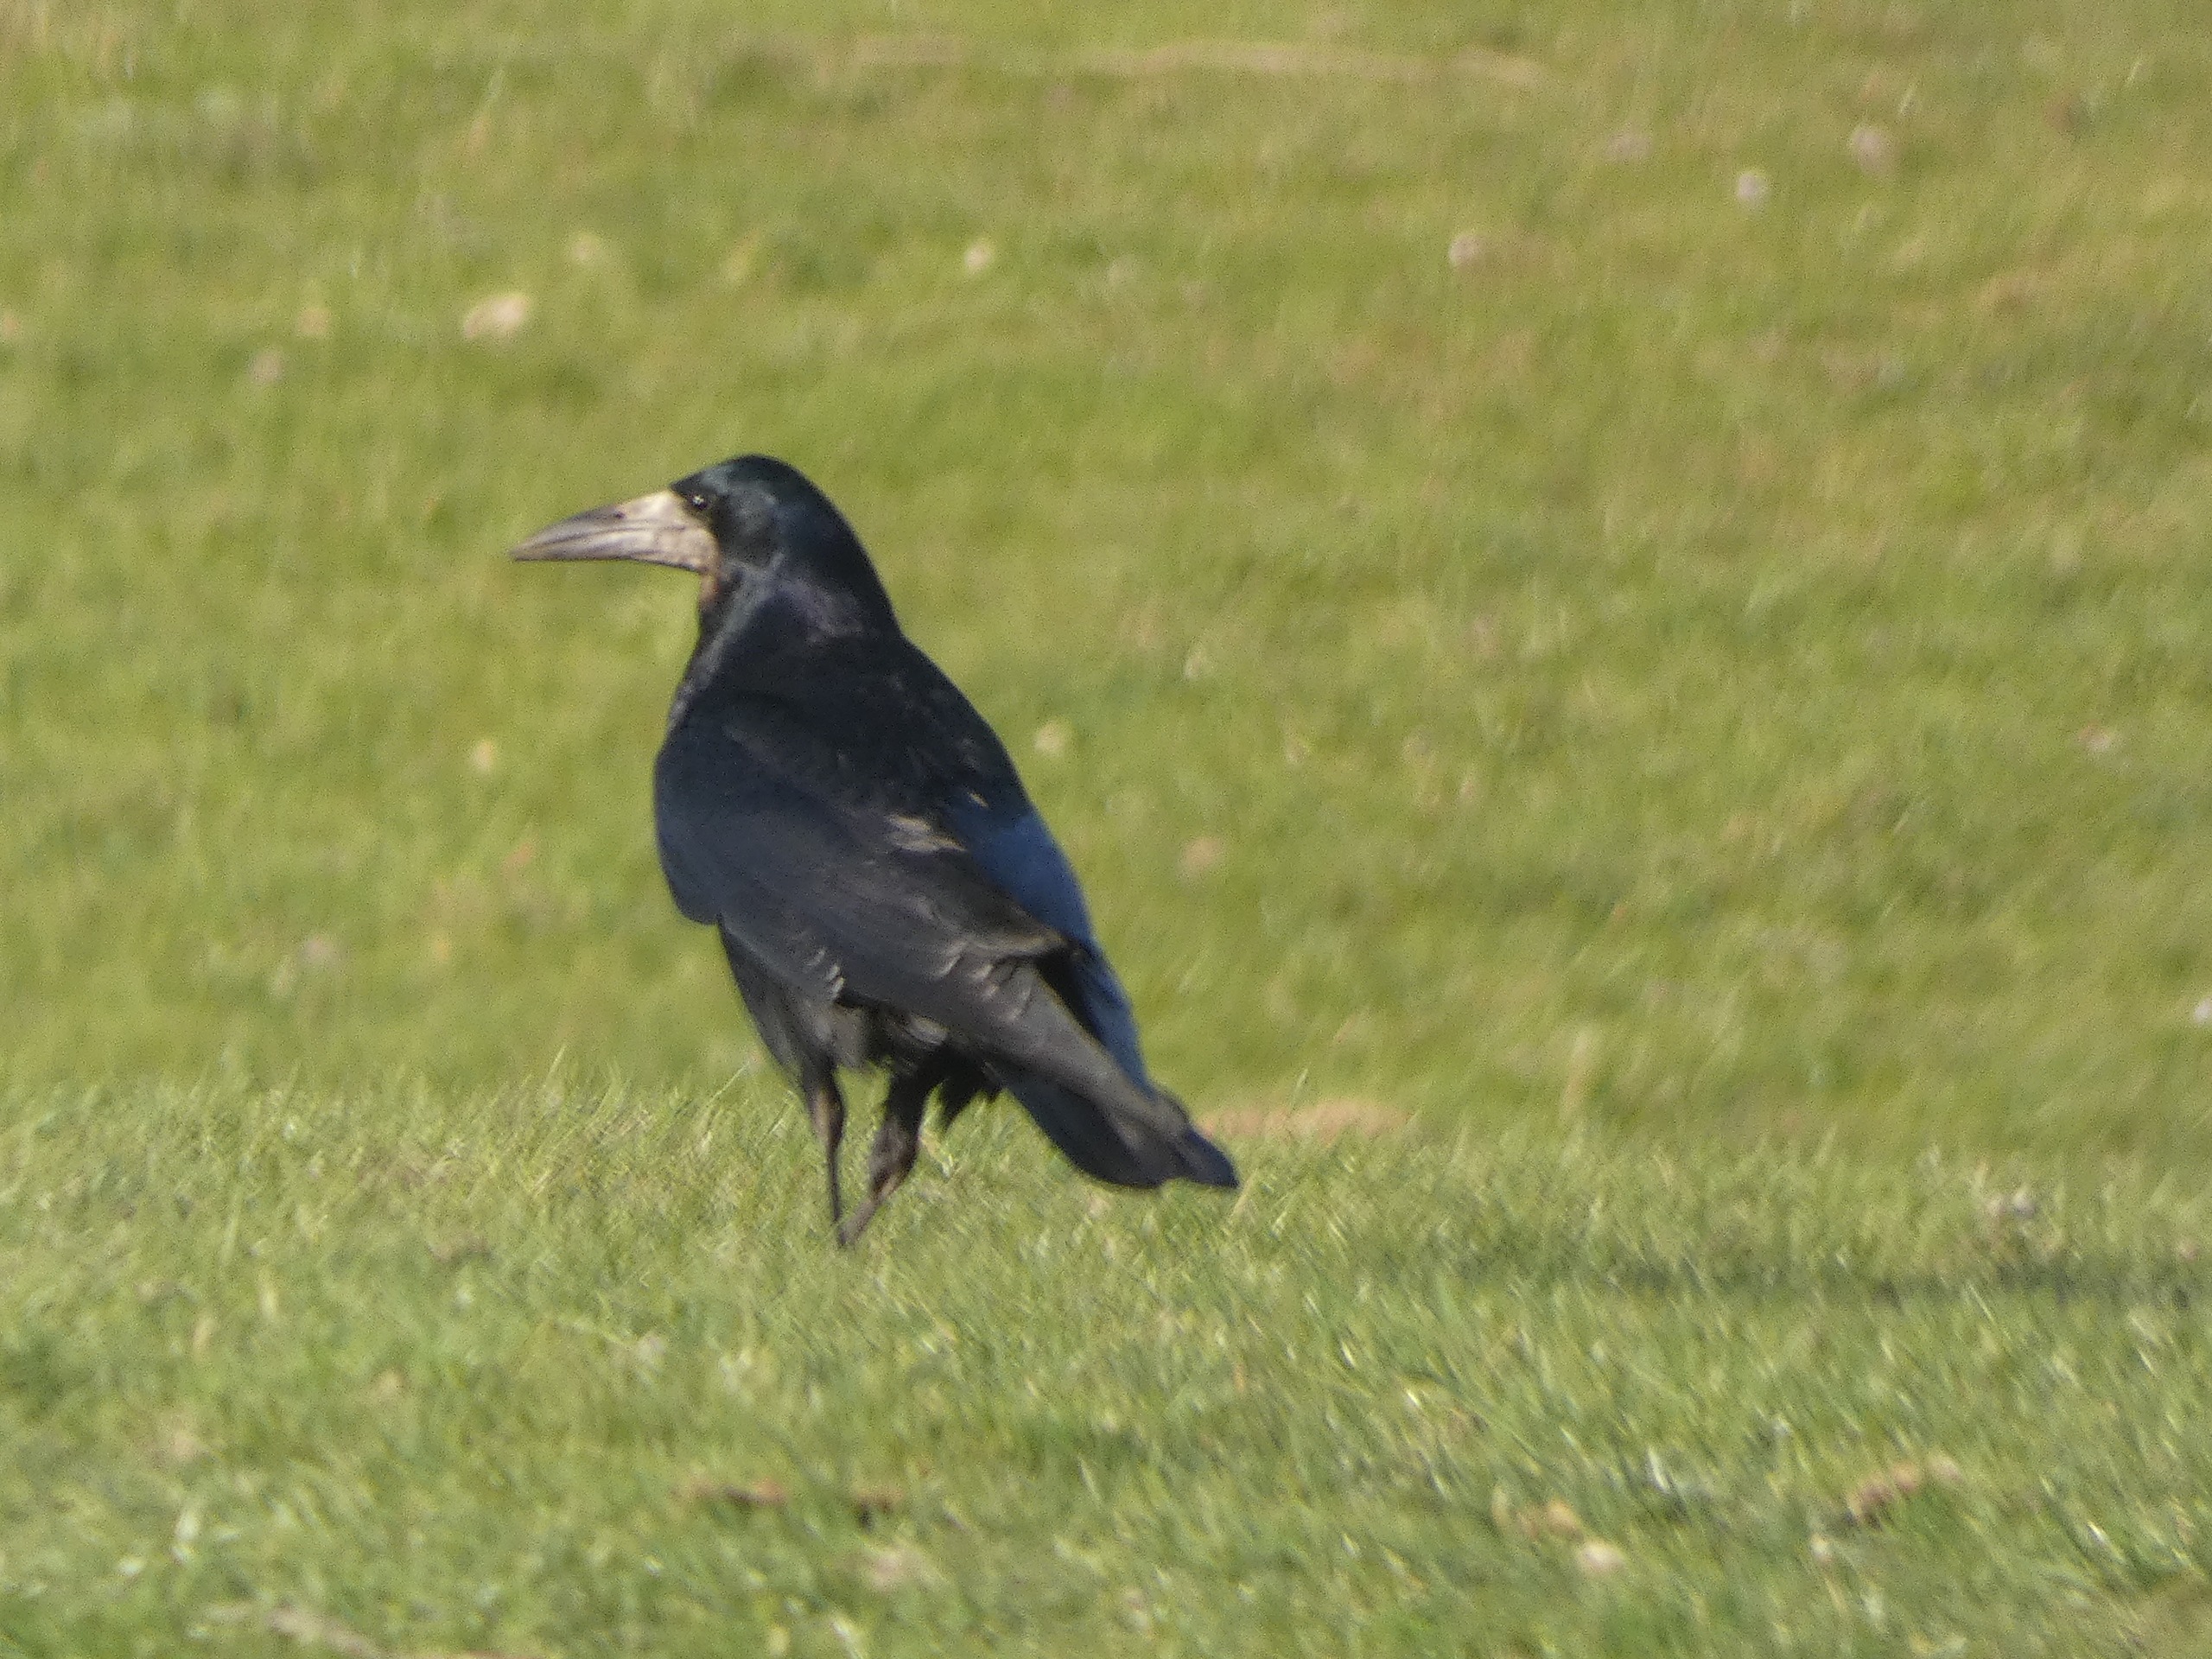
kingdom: Animalia
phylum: Chordata
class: Aves
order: Passeriformes
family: Corvidae
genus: Corvus
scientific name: Corvus frugilegus
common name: Råge
